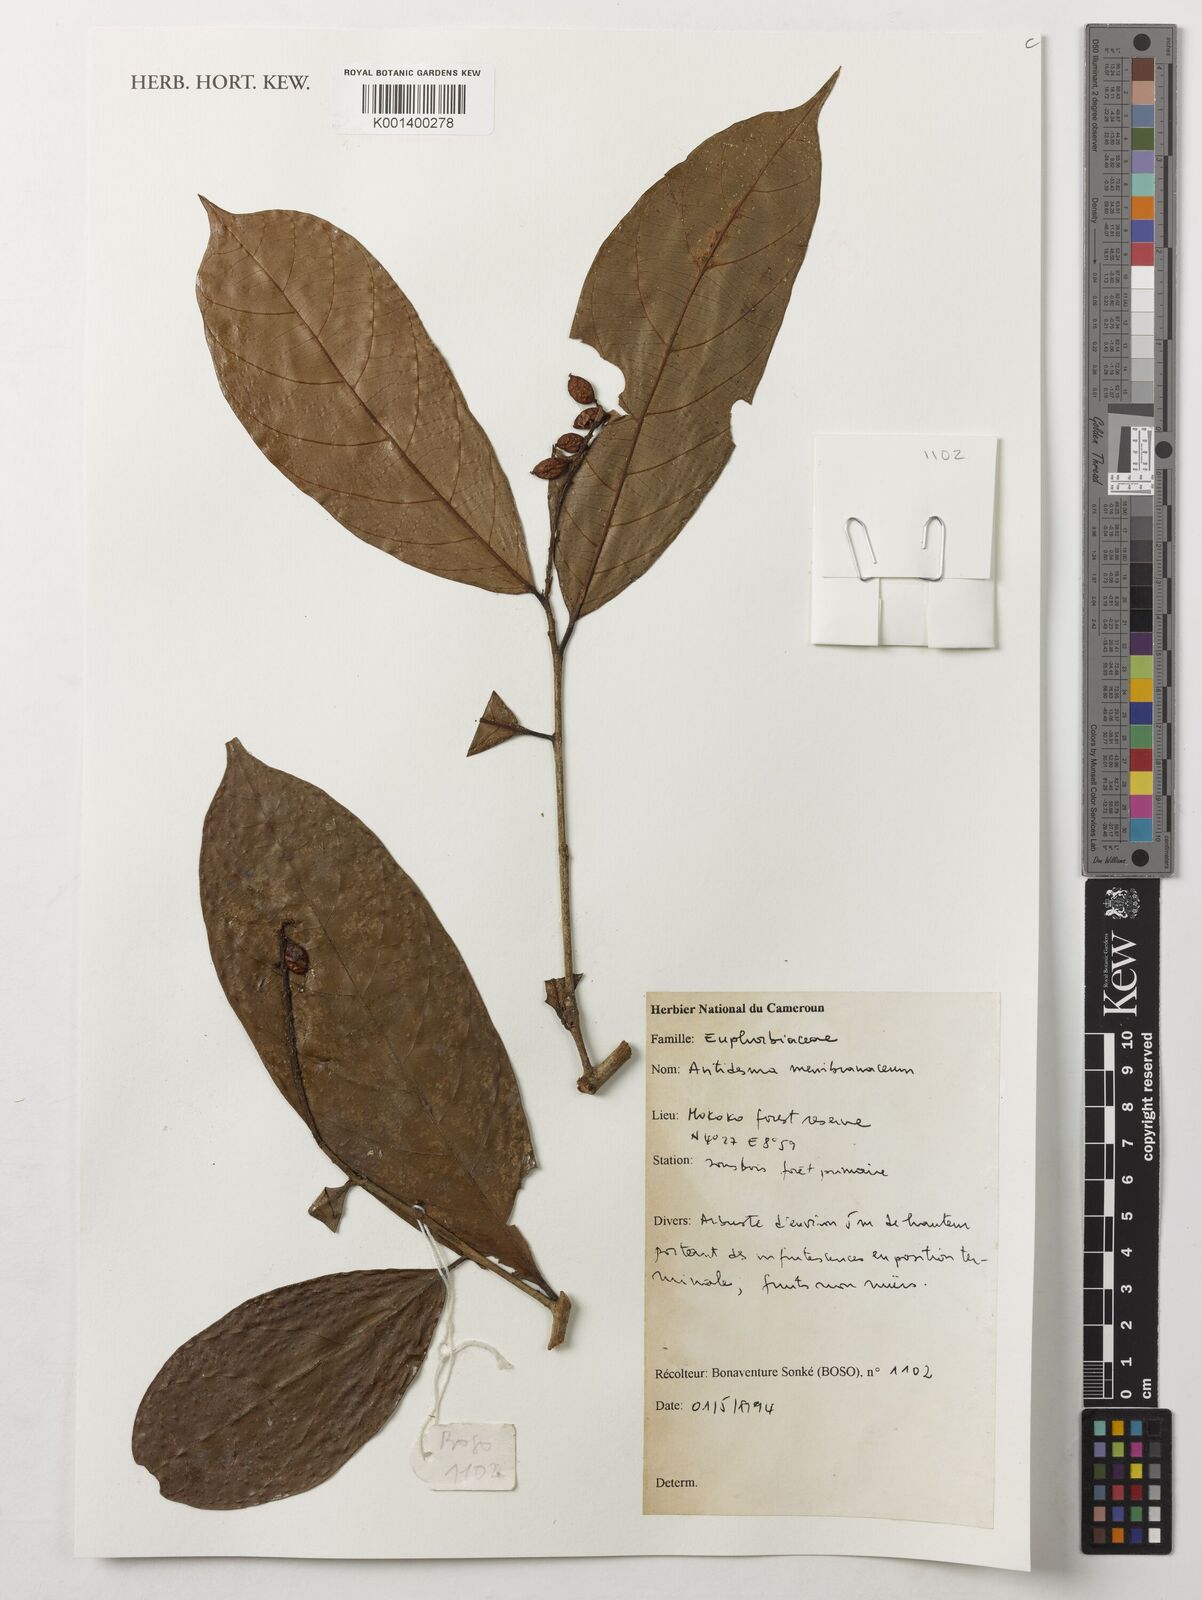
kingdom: Plantae
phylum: Tracheophyta
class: Magnoliopsida
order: Malpighiales
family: Phyllanthaceae
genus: Antidesma
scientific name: Antidesma membranaceum
